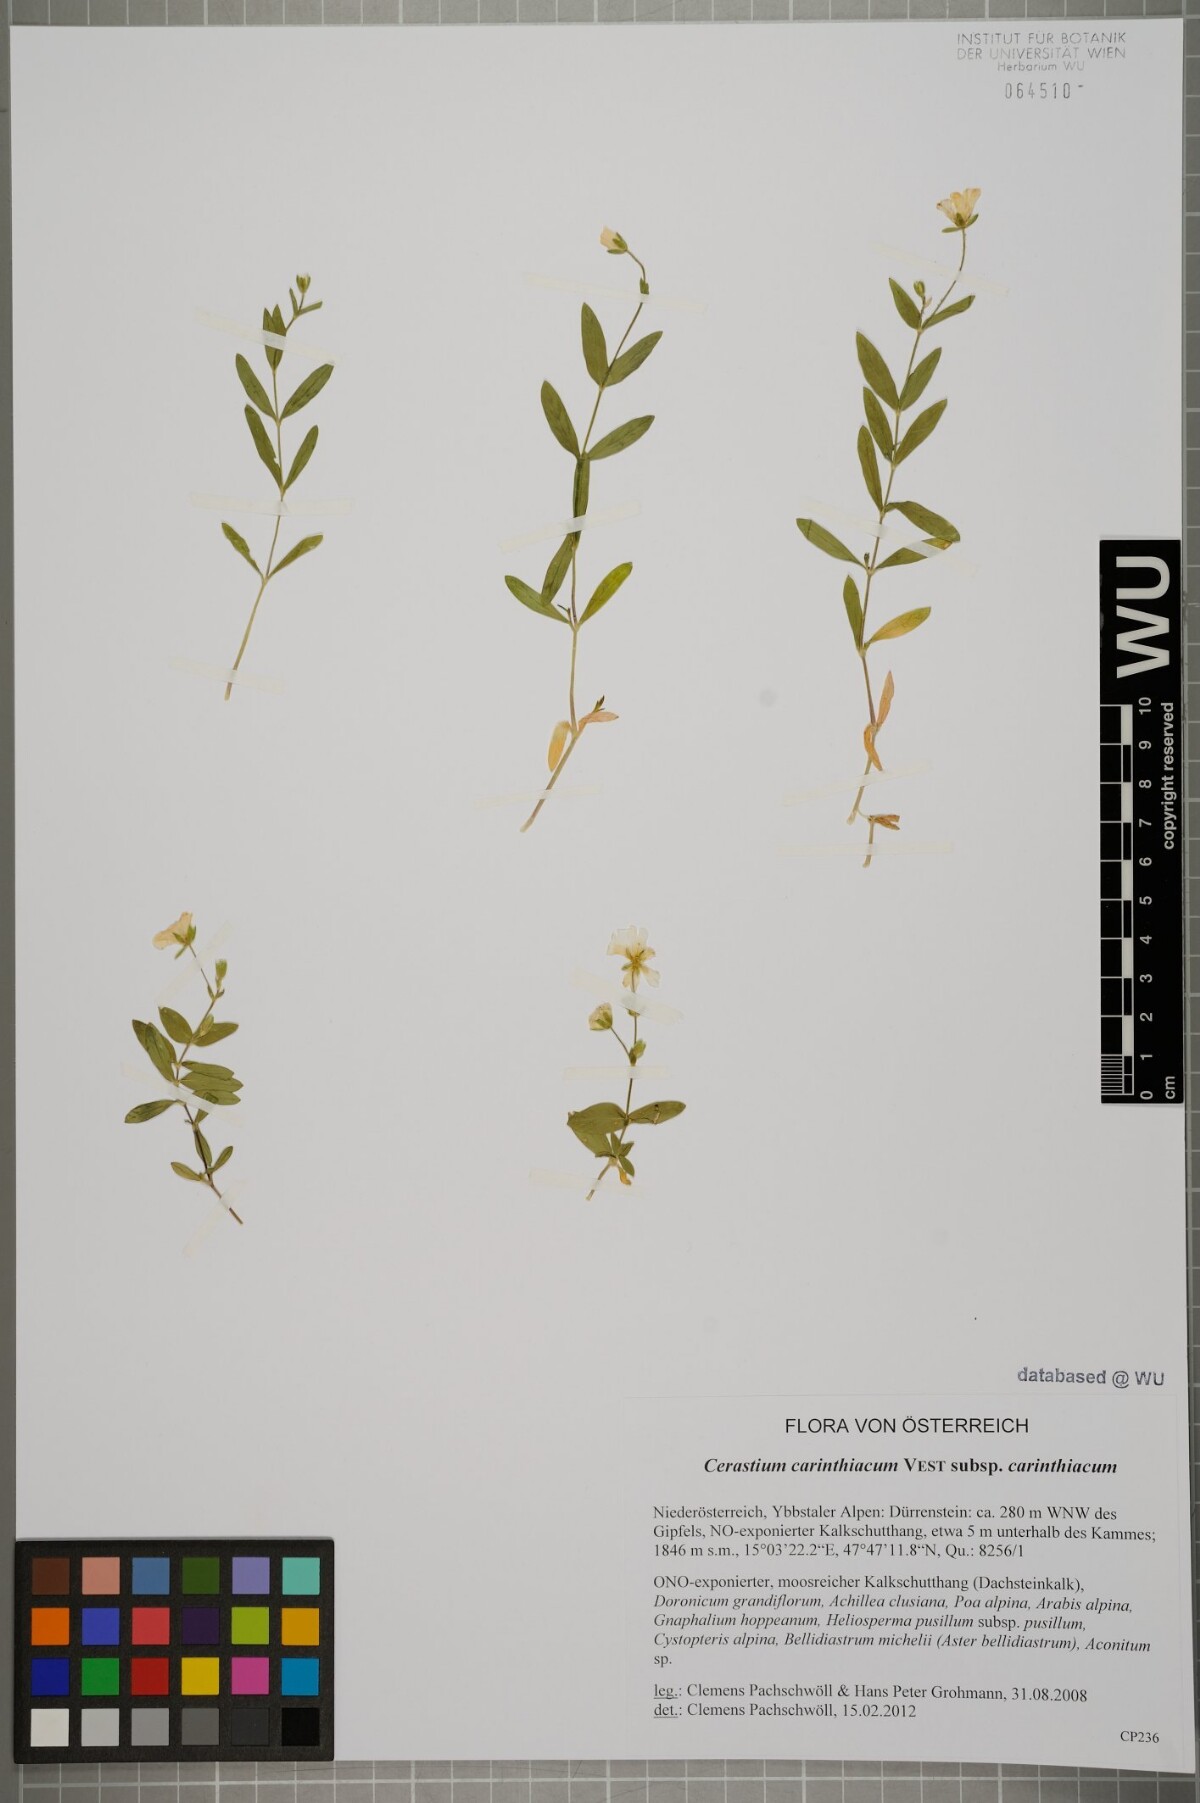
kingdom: Plantae
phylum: Tracheophyta
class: Magnoliopsida
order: Caryophyllales
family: Caryophyllaceae
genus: Cerastium
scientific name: Cerastium carinthiacum
